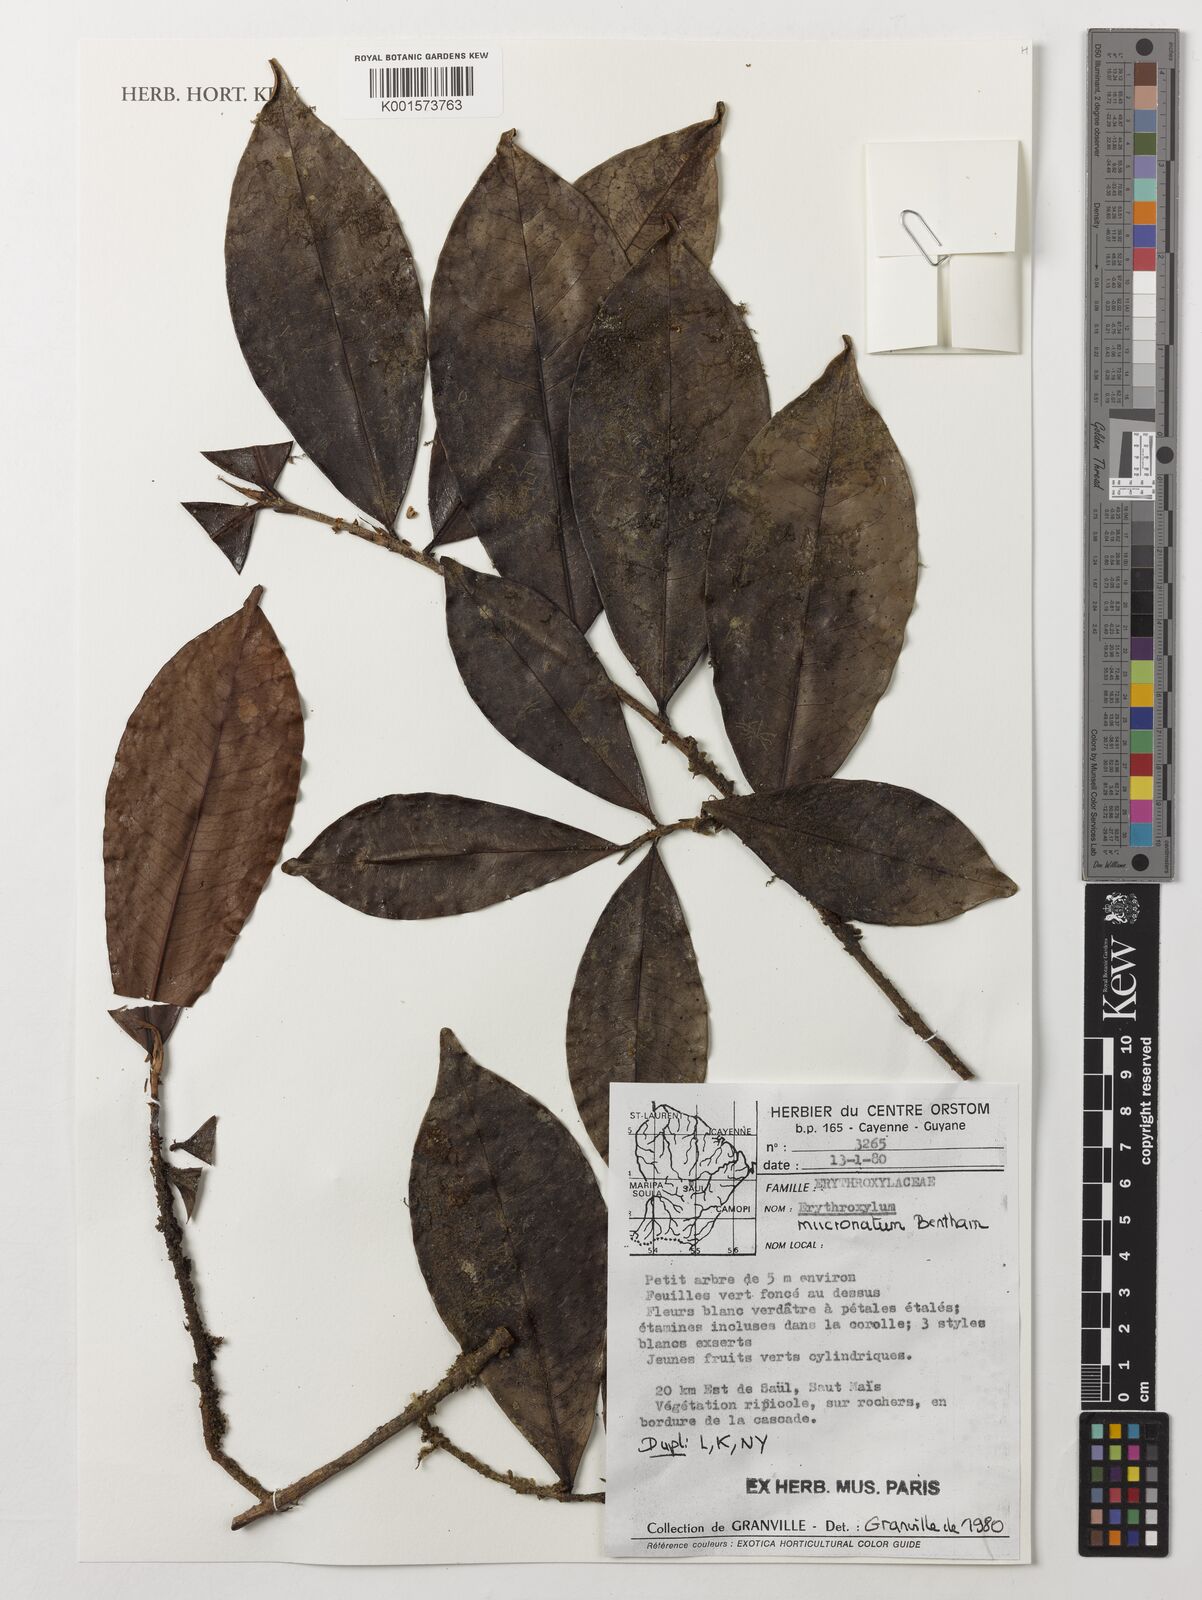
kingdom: Plantae
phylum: Tracheophyta
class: Magnoliopsida
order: Malpighiales
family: Erythroxylaceae
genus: Erythroxylum
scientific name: Erythroxylum mucronatum
